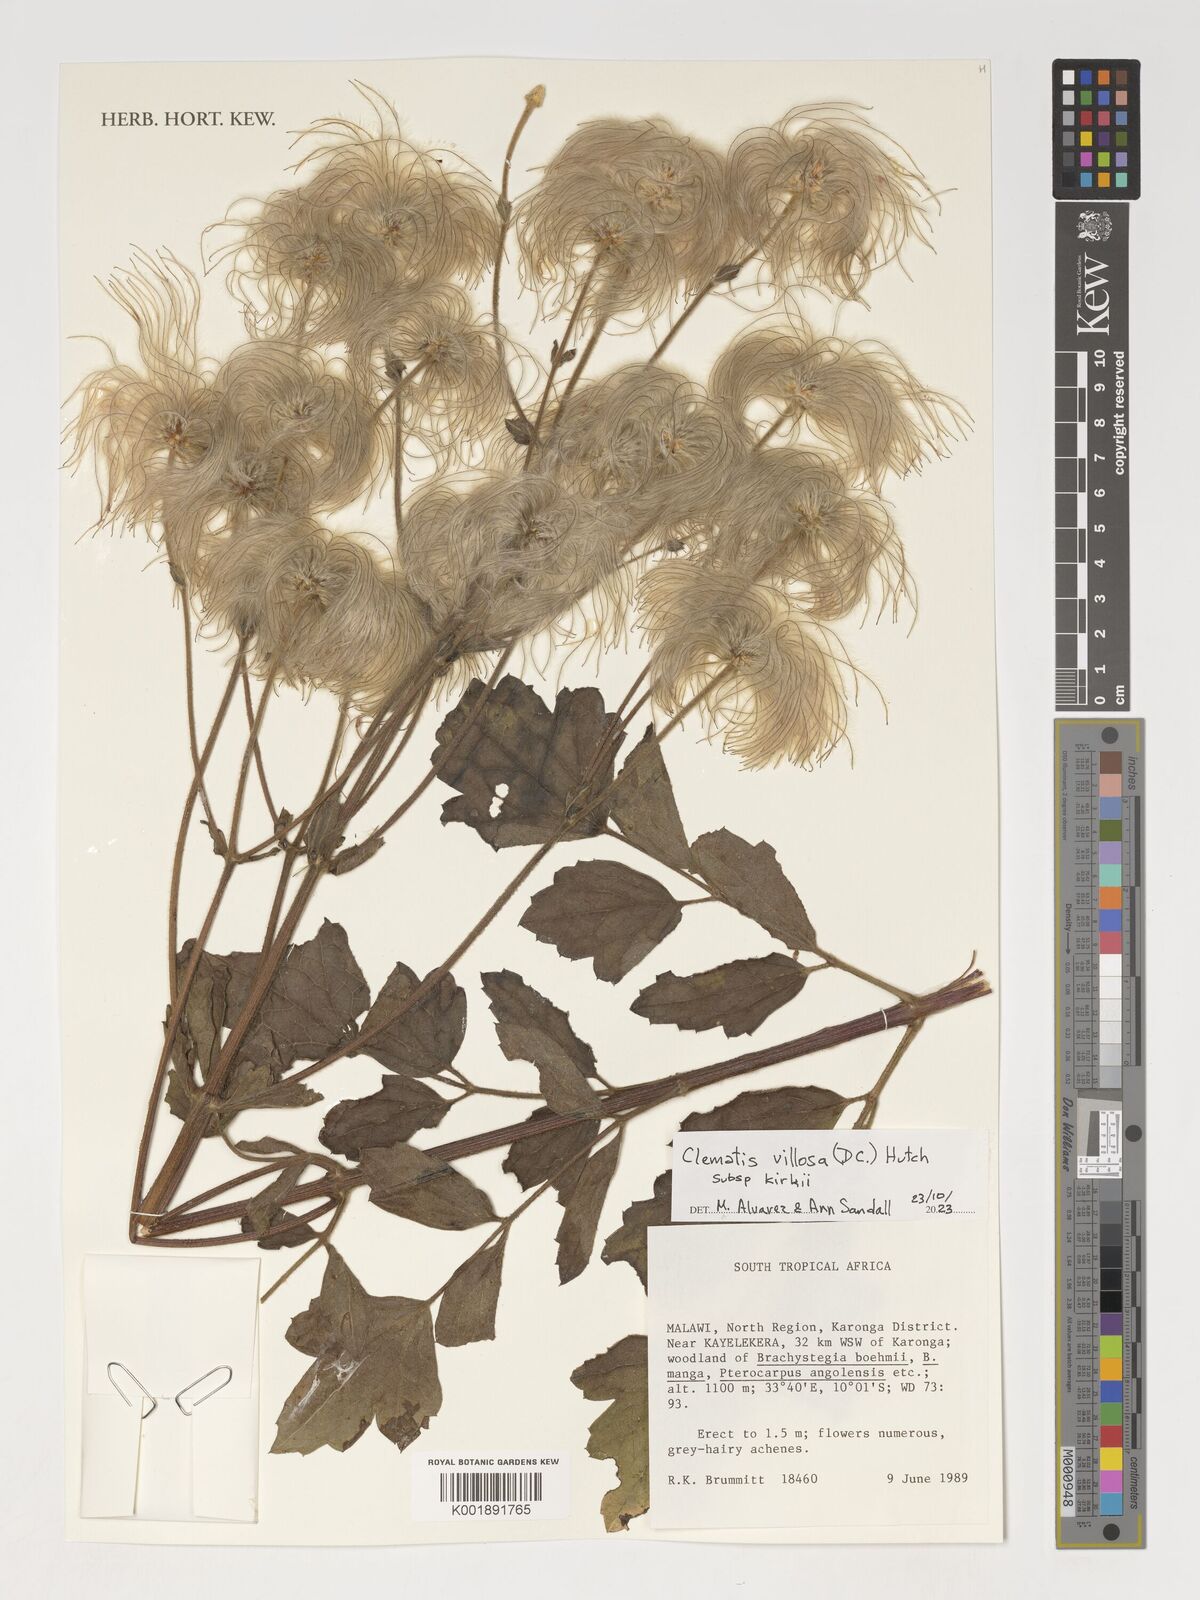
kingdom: Plantae
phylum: Tracheophyta
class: Magnoliopsida
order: Ranunculales
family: Ranunculaceae
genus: Clematis
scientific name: Clematis villosa
